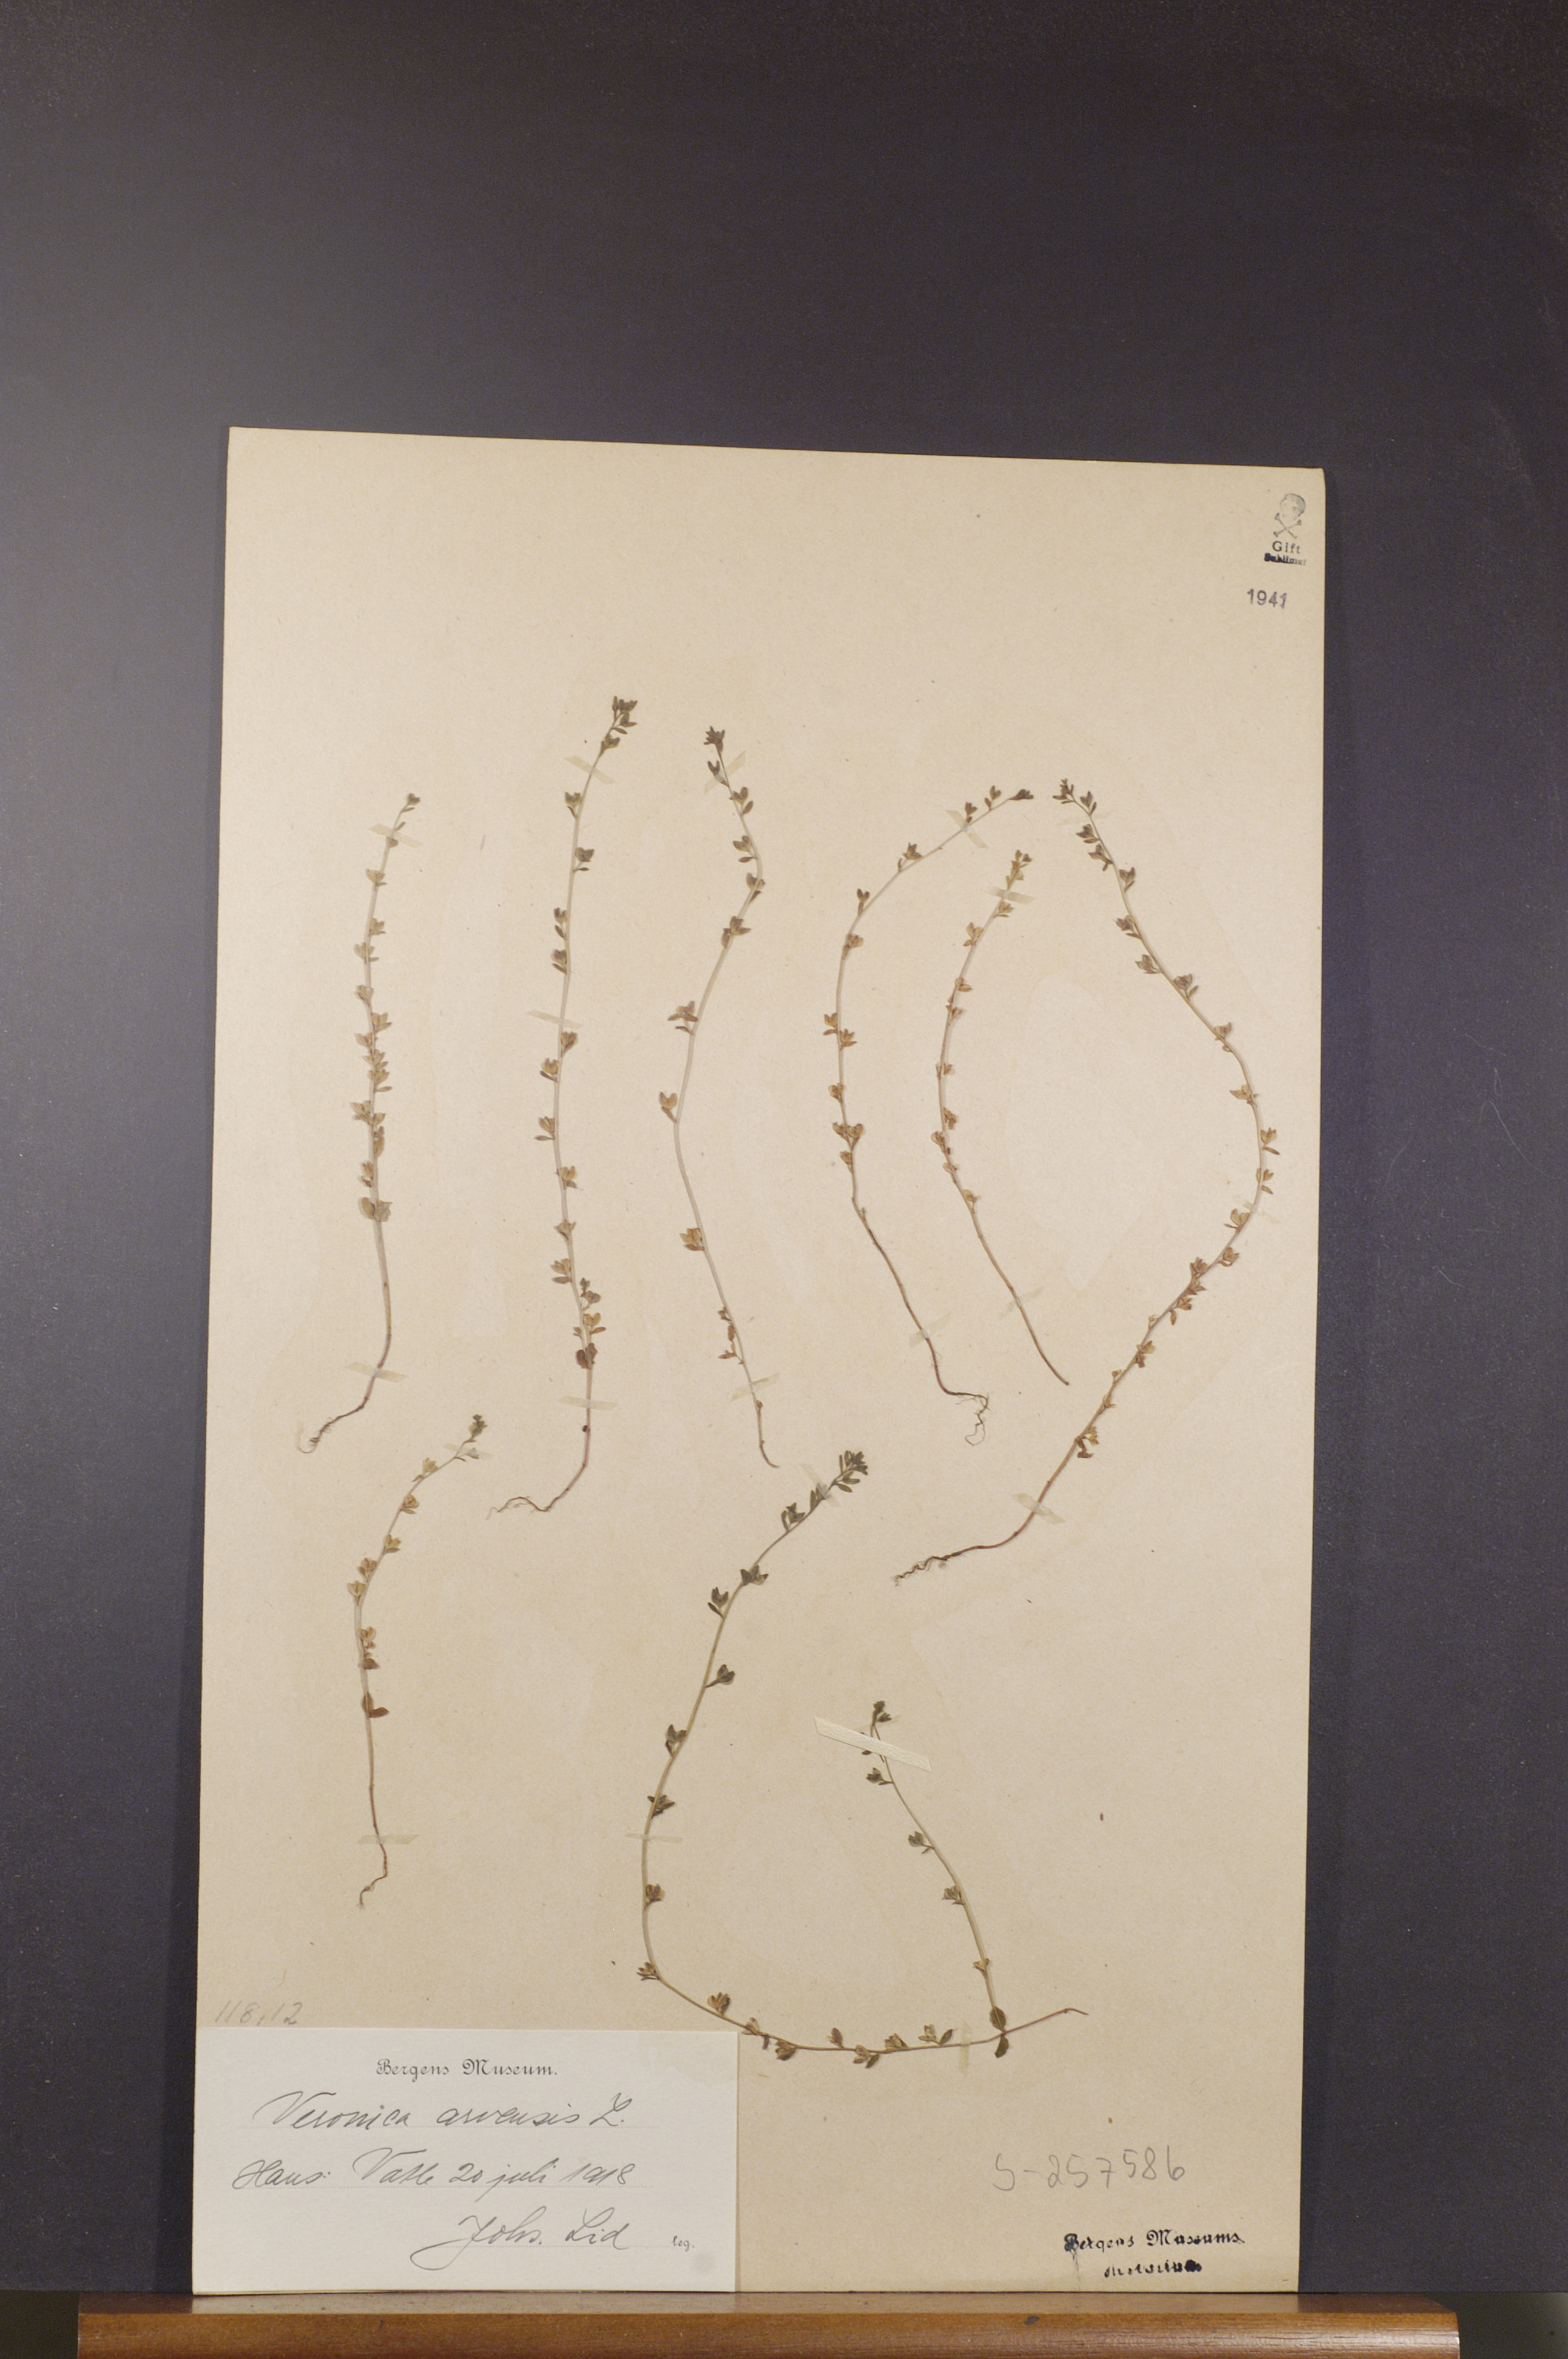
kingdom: Plantae
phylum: Tracheophyta
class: Magnoliopsida
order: Lamiales
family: Plantaginaceae
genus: Veronica
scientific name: Veronica arvensis
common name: Corn speedwell
